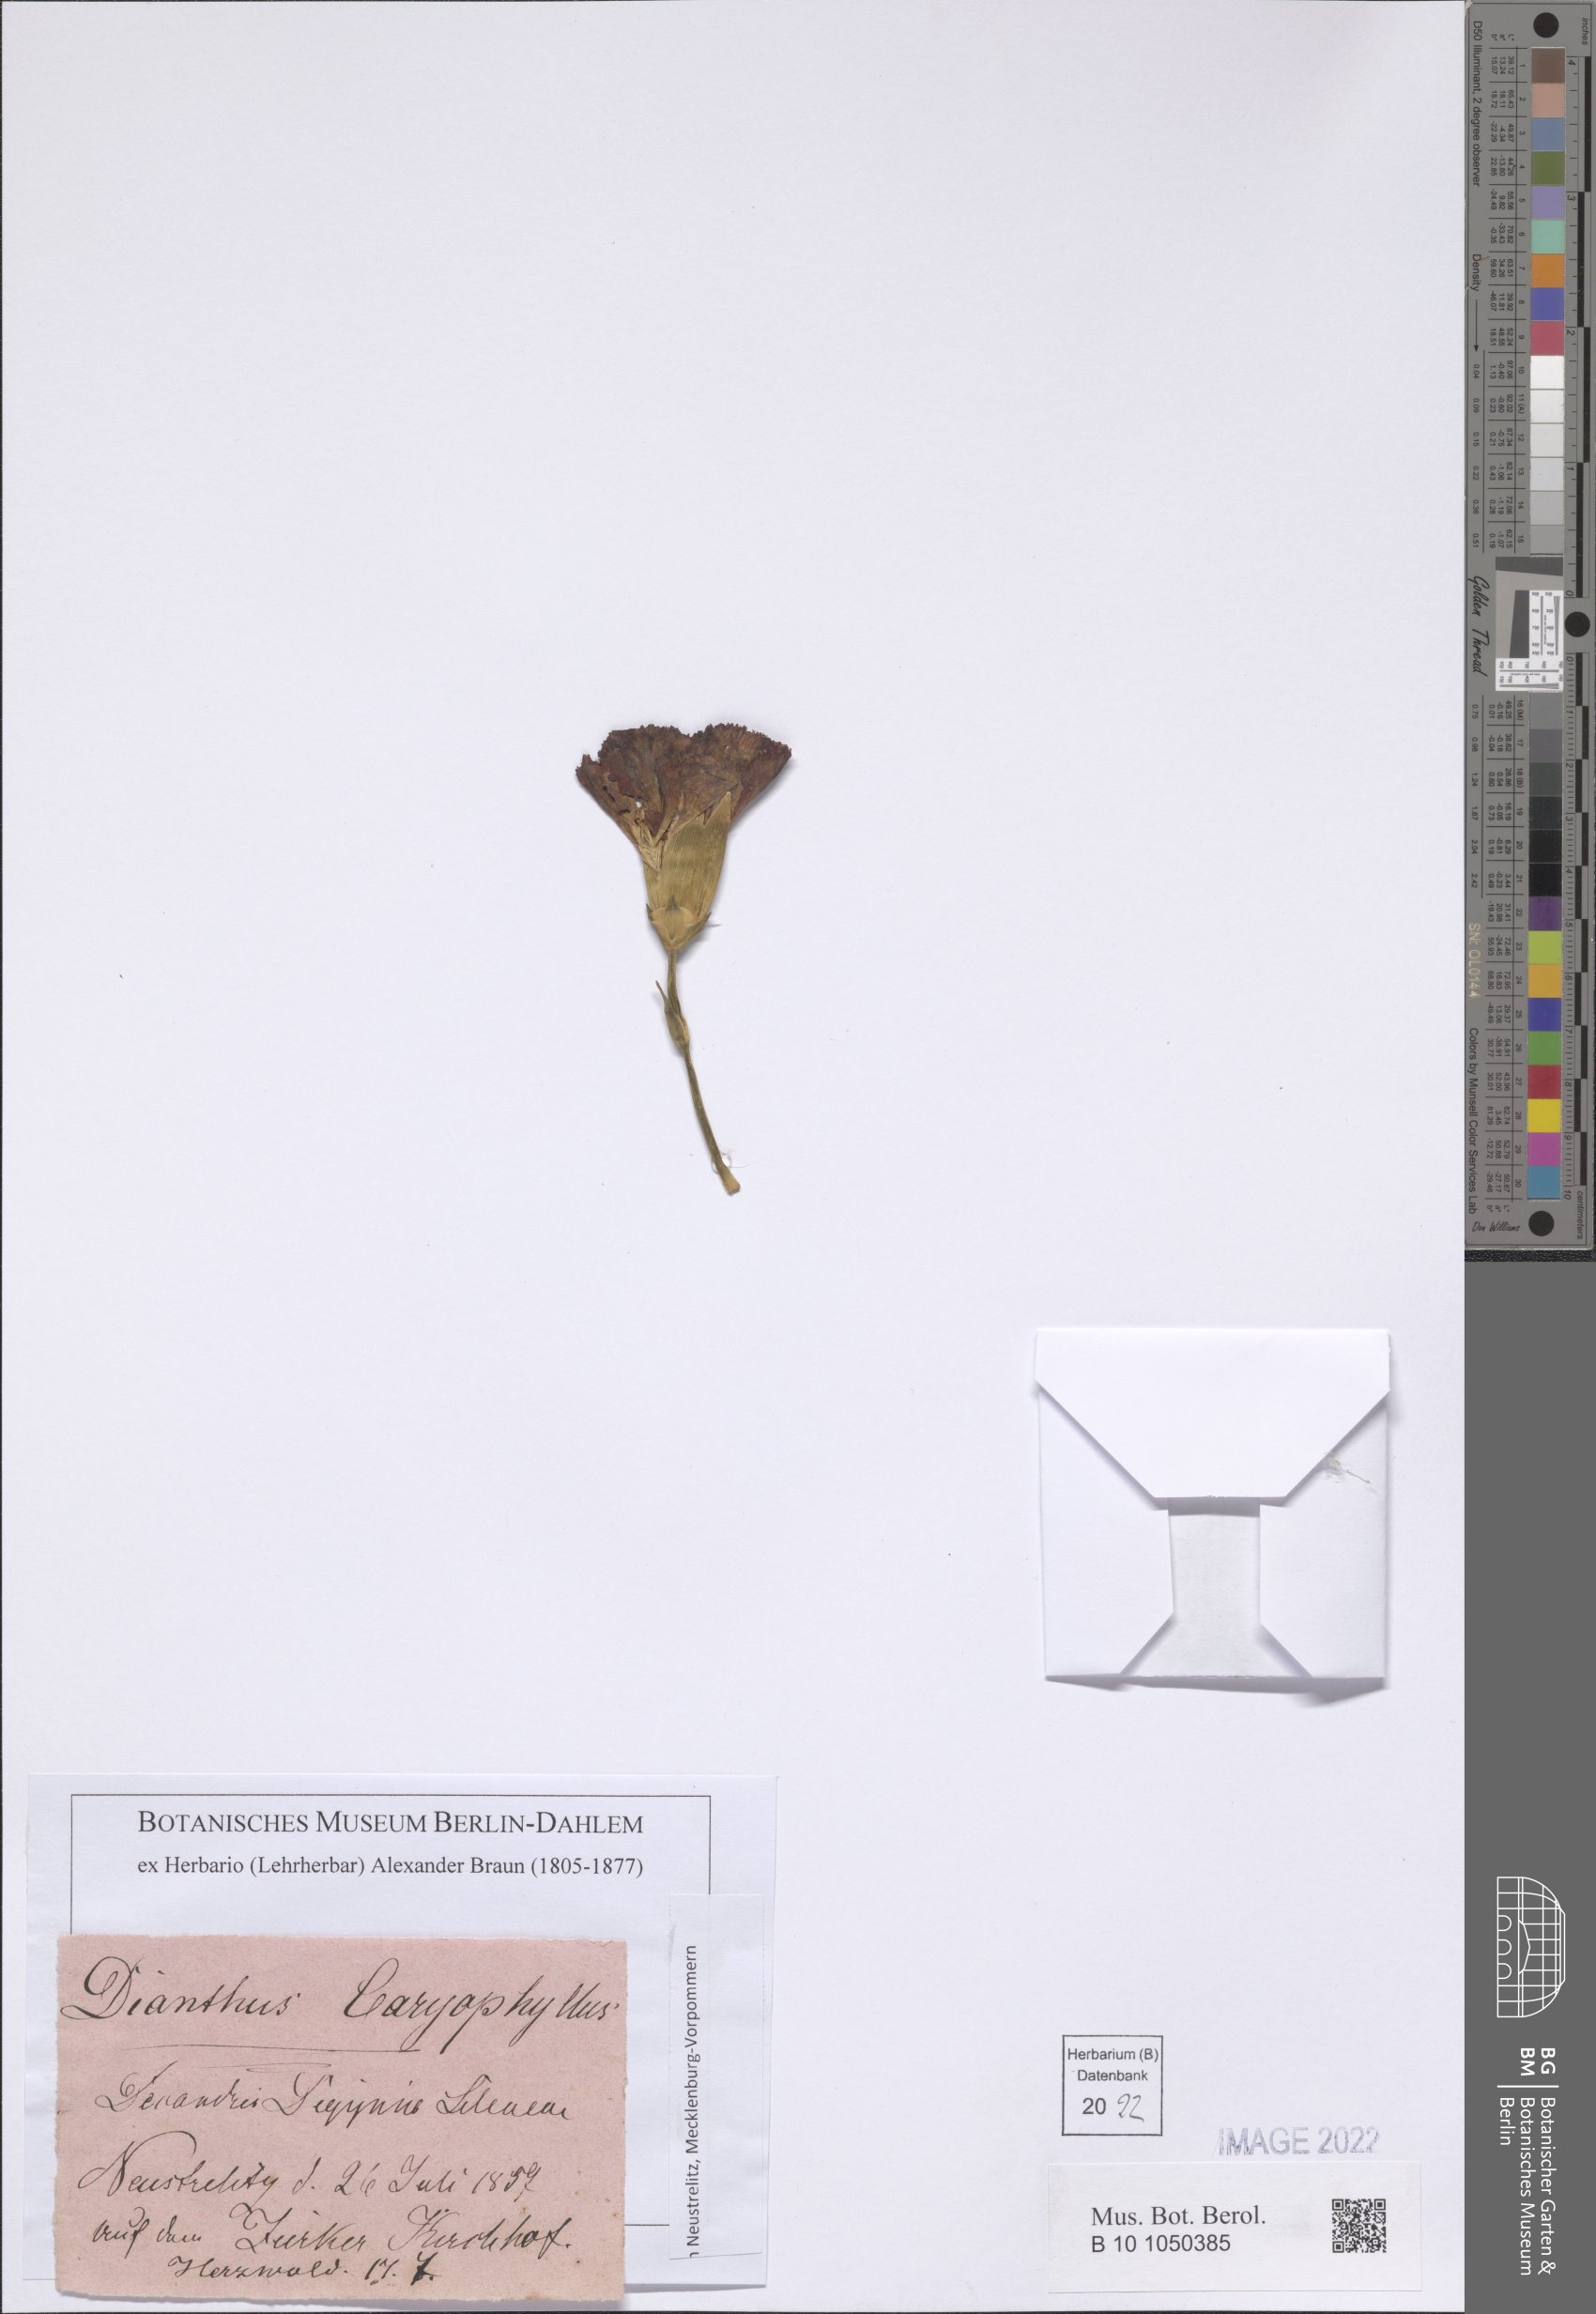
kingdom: Plantae
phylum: Tracheophyta
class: Magnoliopsida
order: Caryophyllales
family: Caryophyllaceae
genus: Dianthus
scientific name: Dianthus caryophyllus
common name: Clove pink
